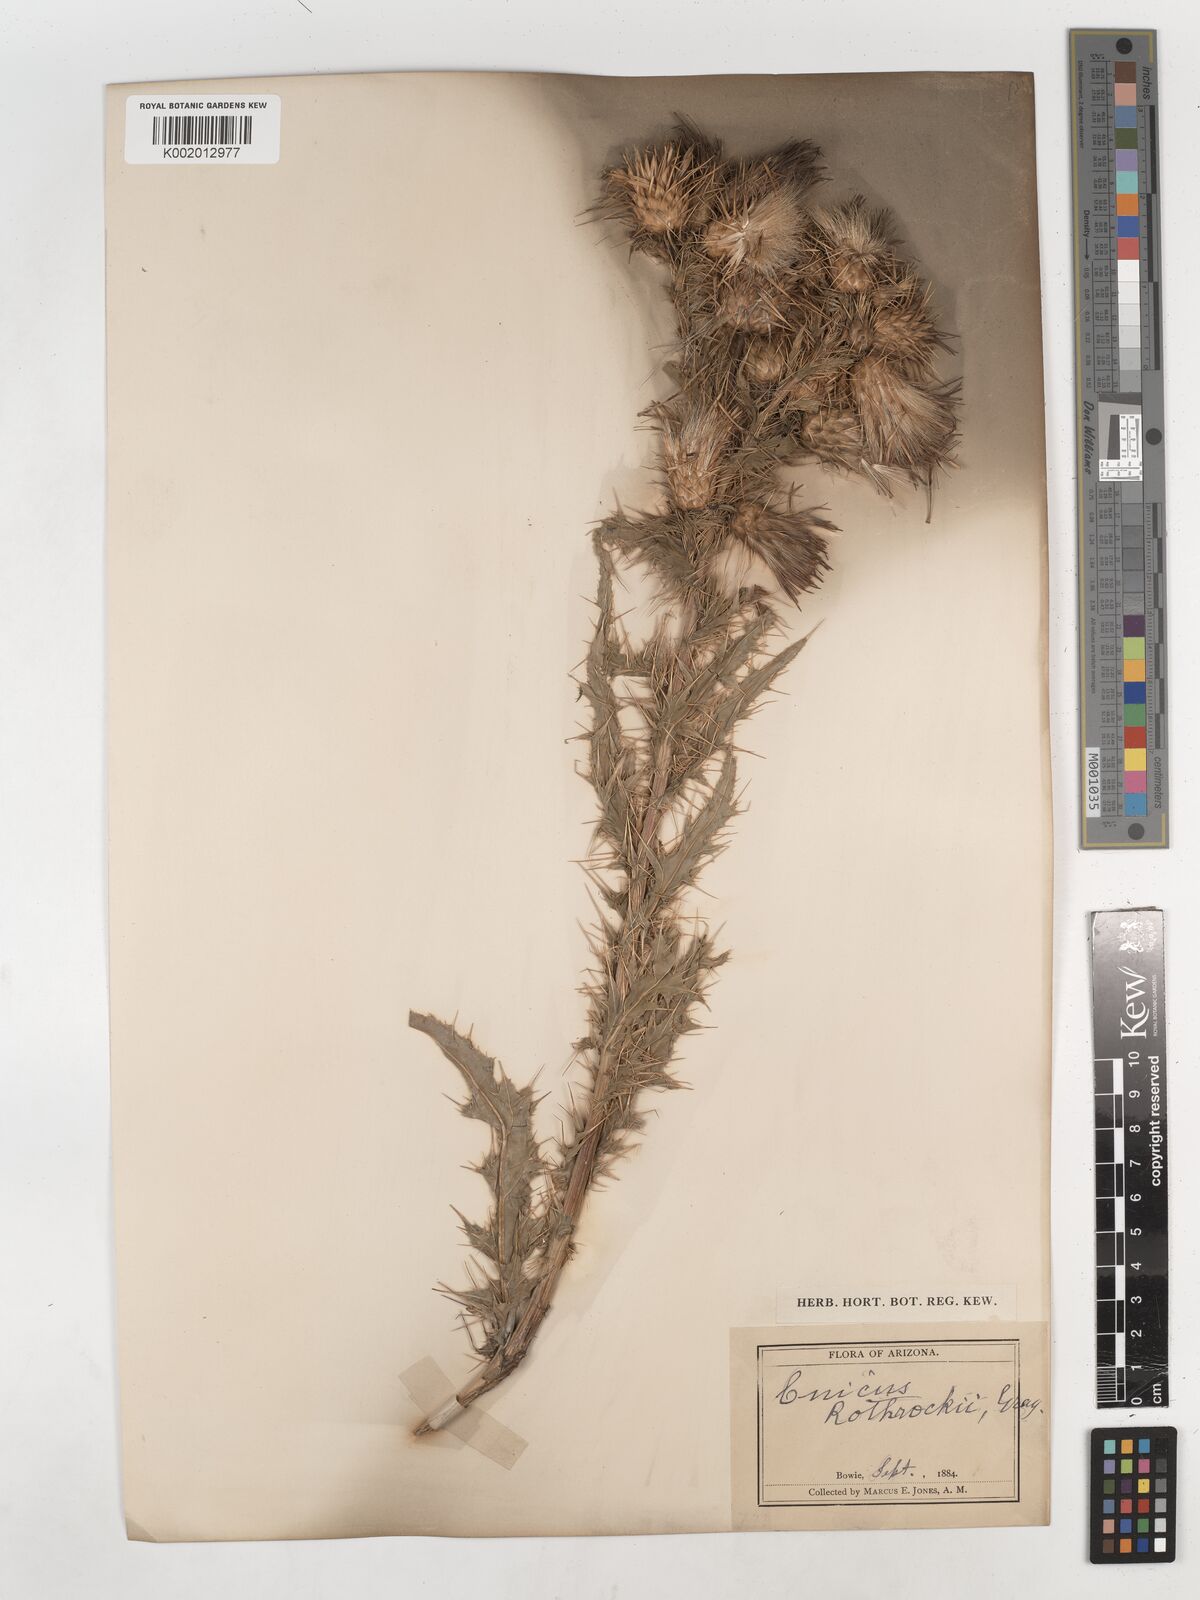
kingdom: Plantae
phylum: Tracheophyta
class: Magnoliopsida
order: Asterales
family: Asteraceae
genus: Cirsium
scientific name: Cirsium arizonicum
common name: Arizona thistle
